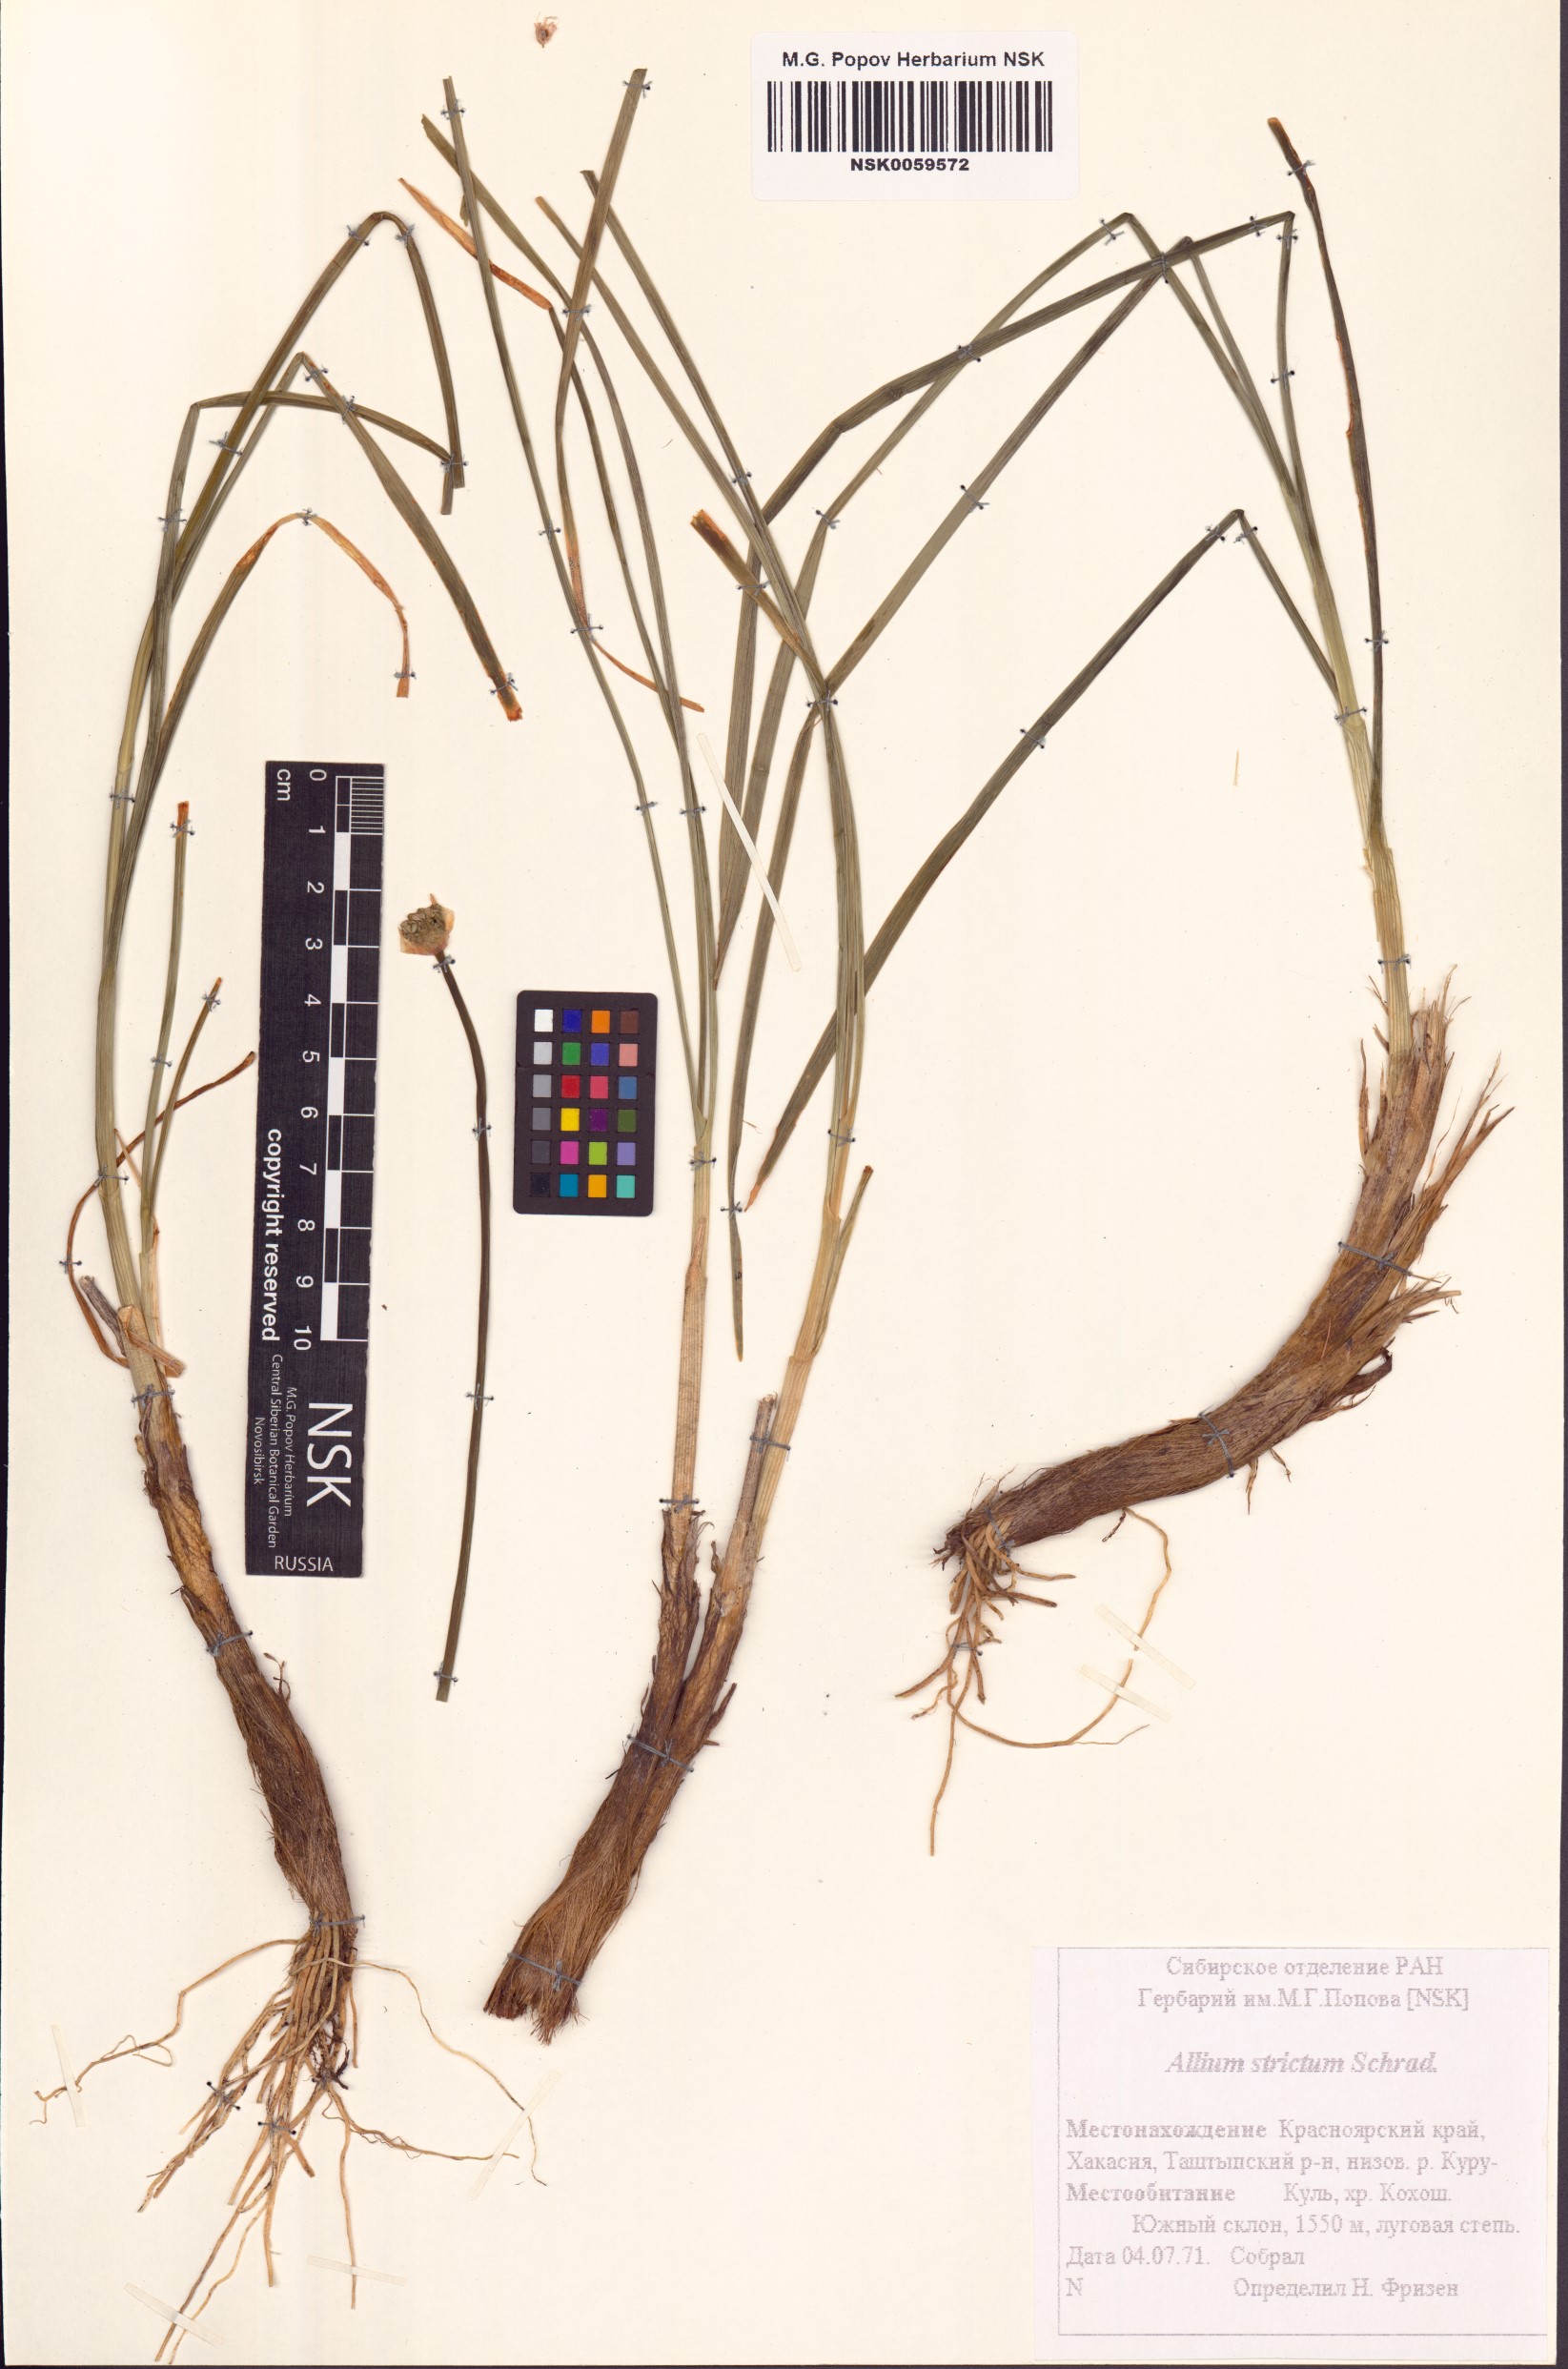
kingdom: Plantae
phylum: Tracheophyta
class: Liliopsida
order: Asparagales
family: Amaryllidaceae
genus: Allium
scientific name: Allium strictum
